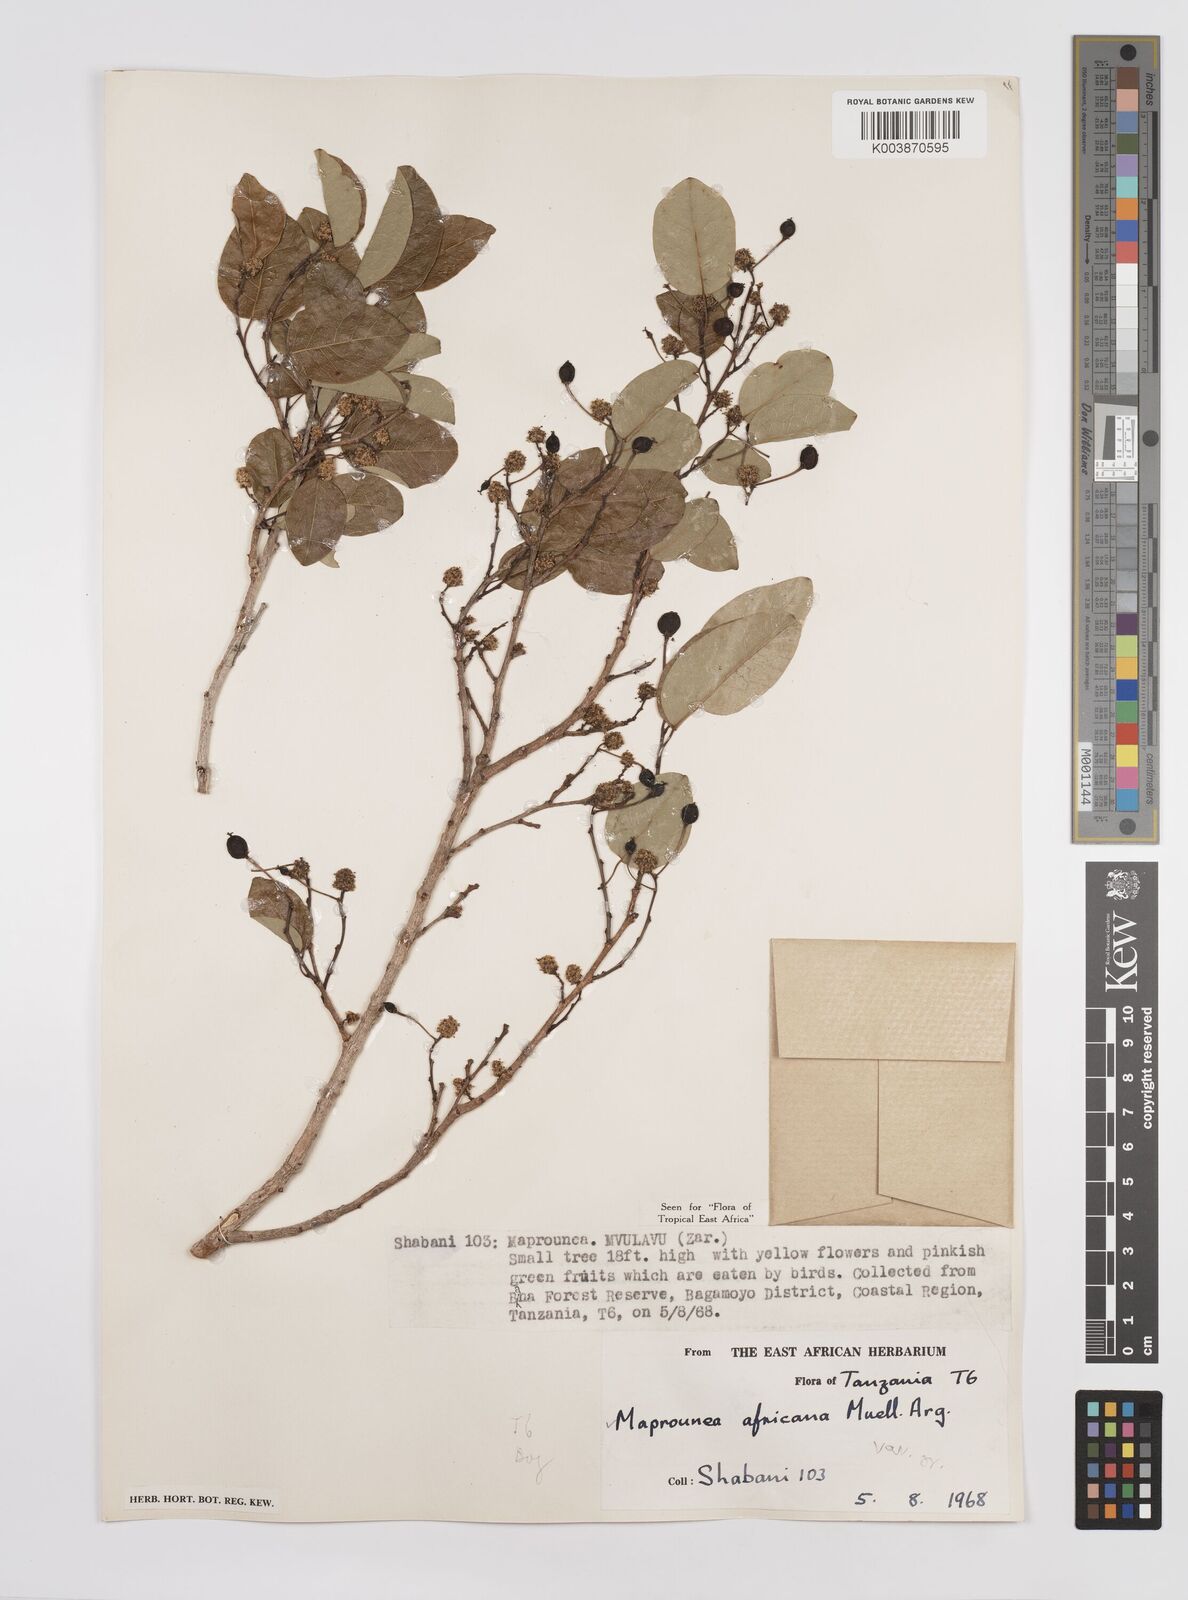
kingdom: Plantae
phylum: Tracheophyta
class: Magnoliopsida
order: Malpighiales
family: Euphorbiaceae
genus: Maprounea
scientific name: Maprounea africana
